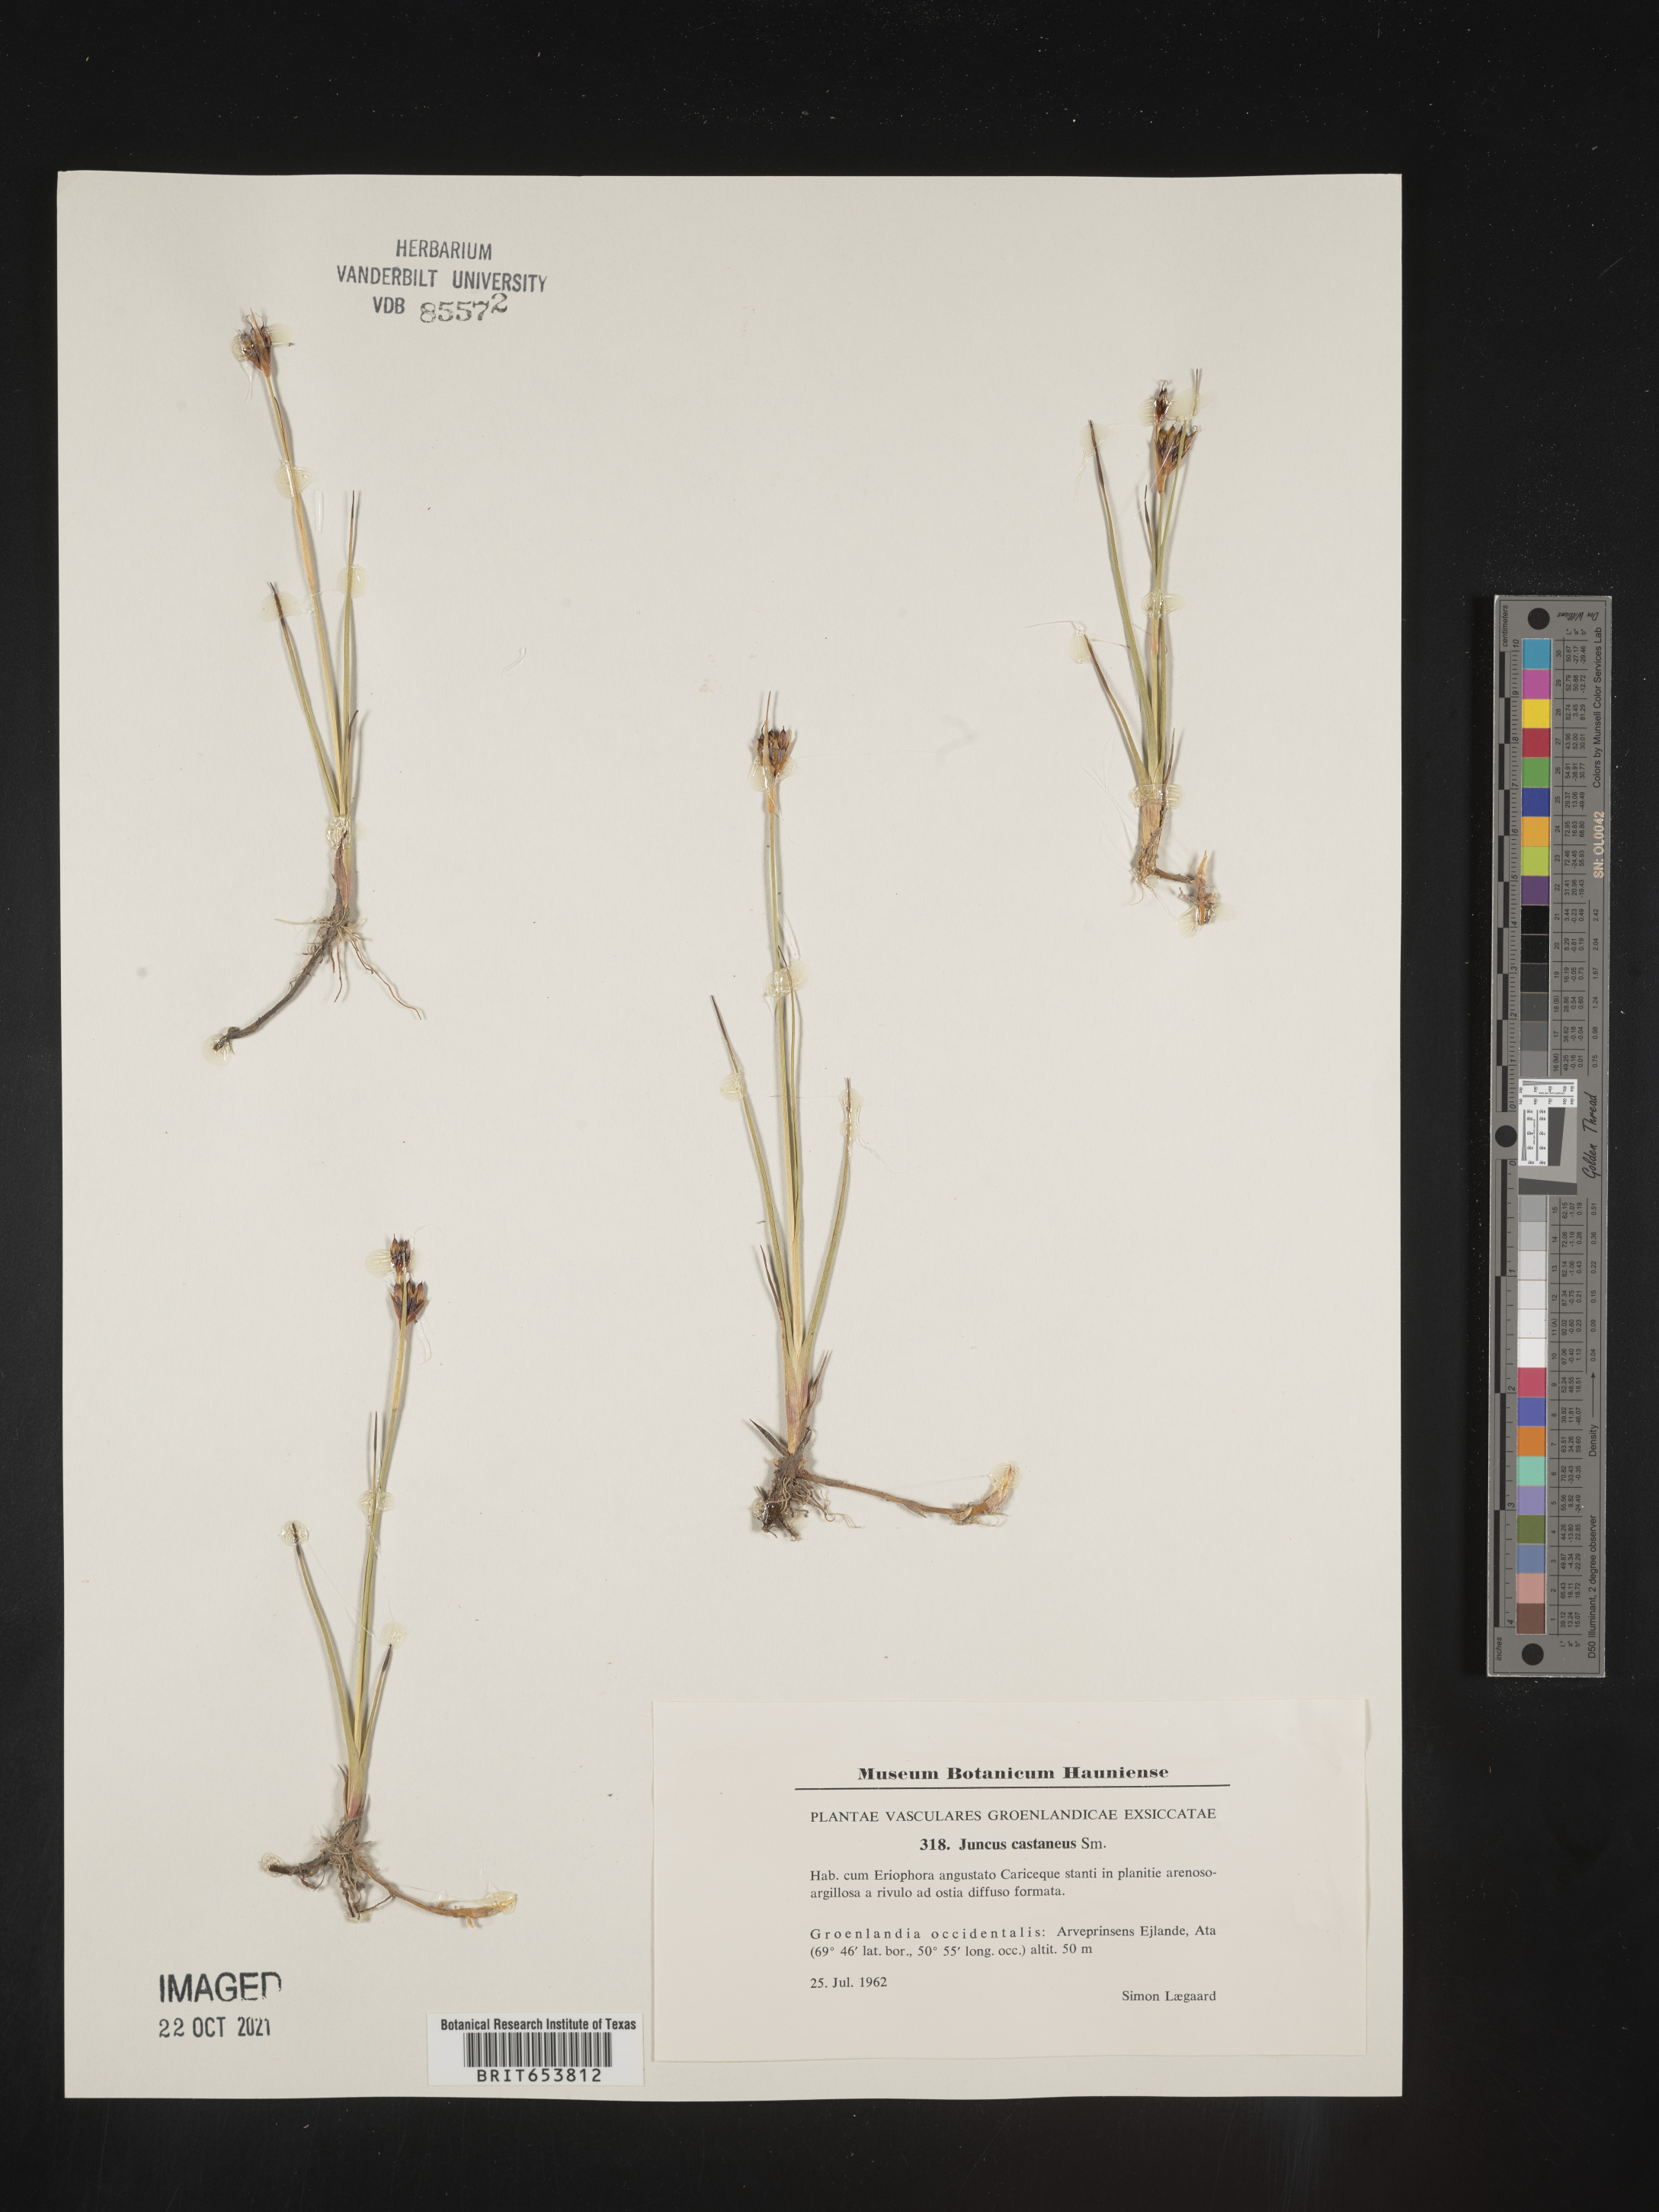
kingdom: Plantae
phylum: Tracheophyta
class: Liliopsida
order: Poales
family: Juncaceae
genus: Juncus
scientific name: Juncus
